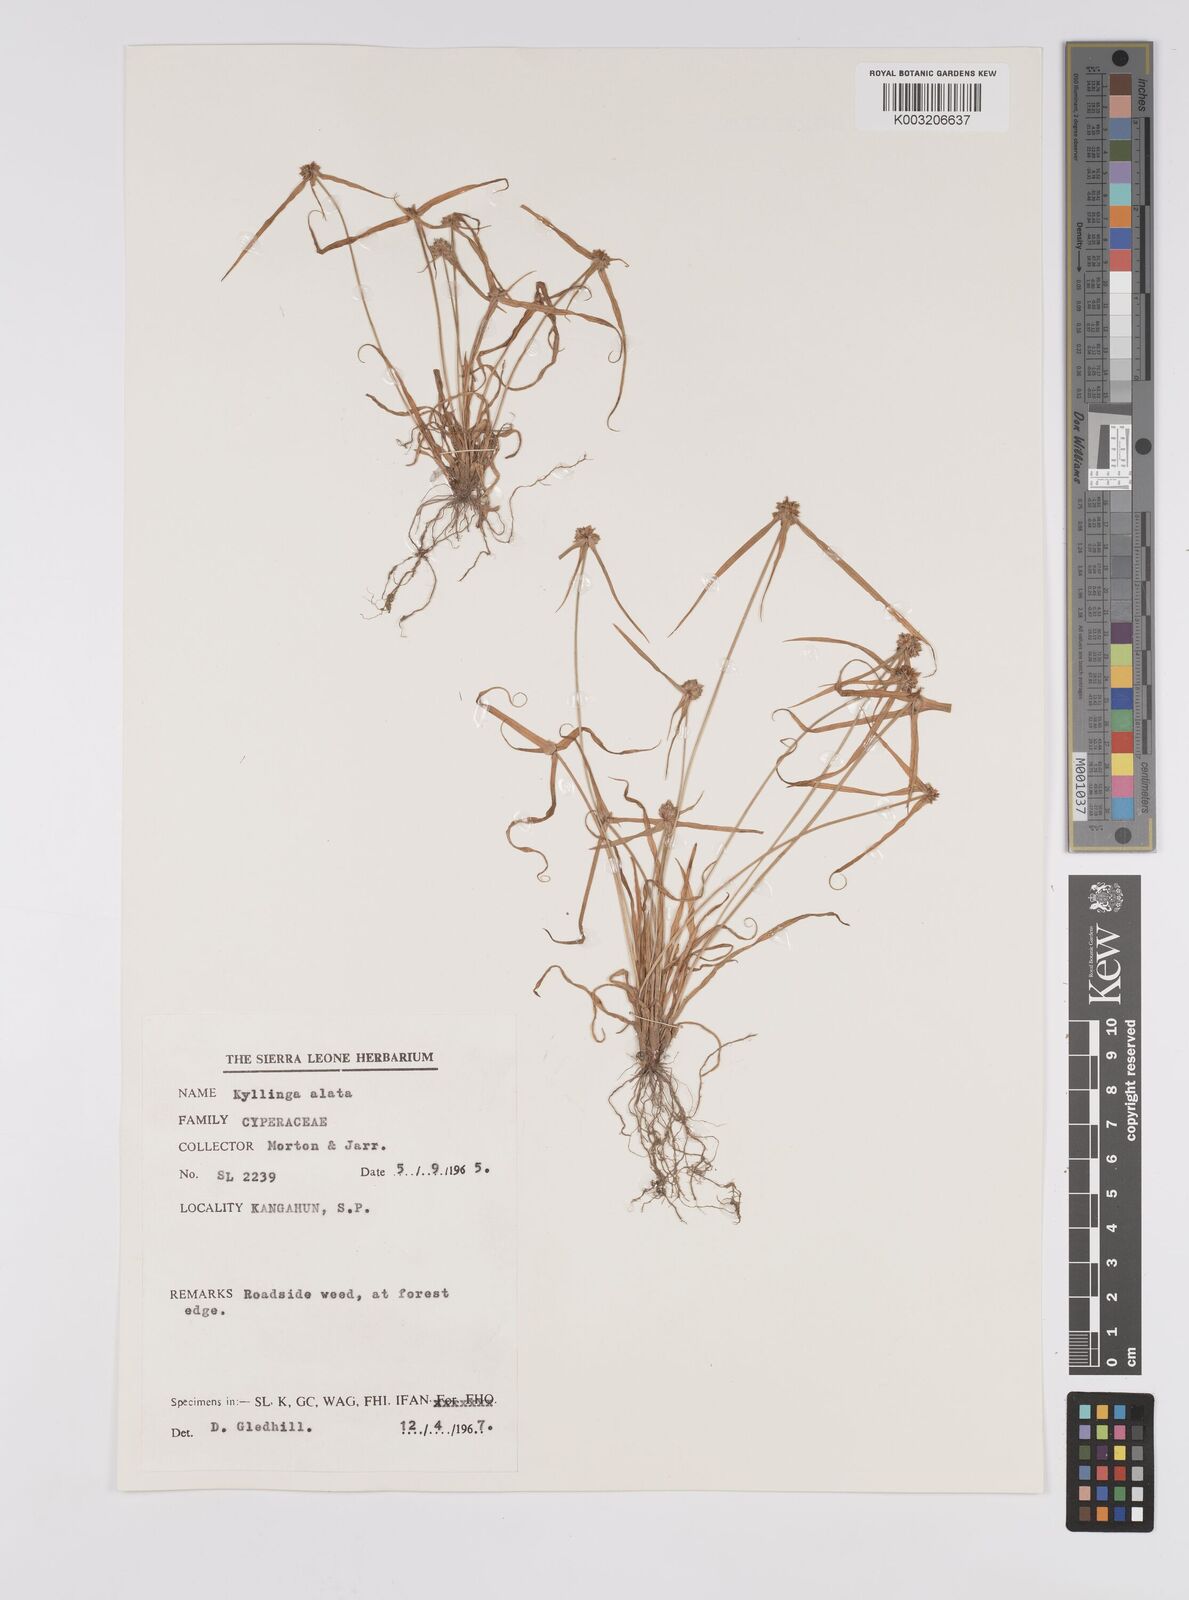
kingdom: Plantae
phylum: Tracheophyta
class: Liliopsida
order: Poales
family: Cyperaceae
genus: Cyperus
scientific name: Cyperus distans
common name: Slender cyperus
